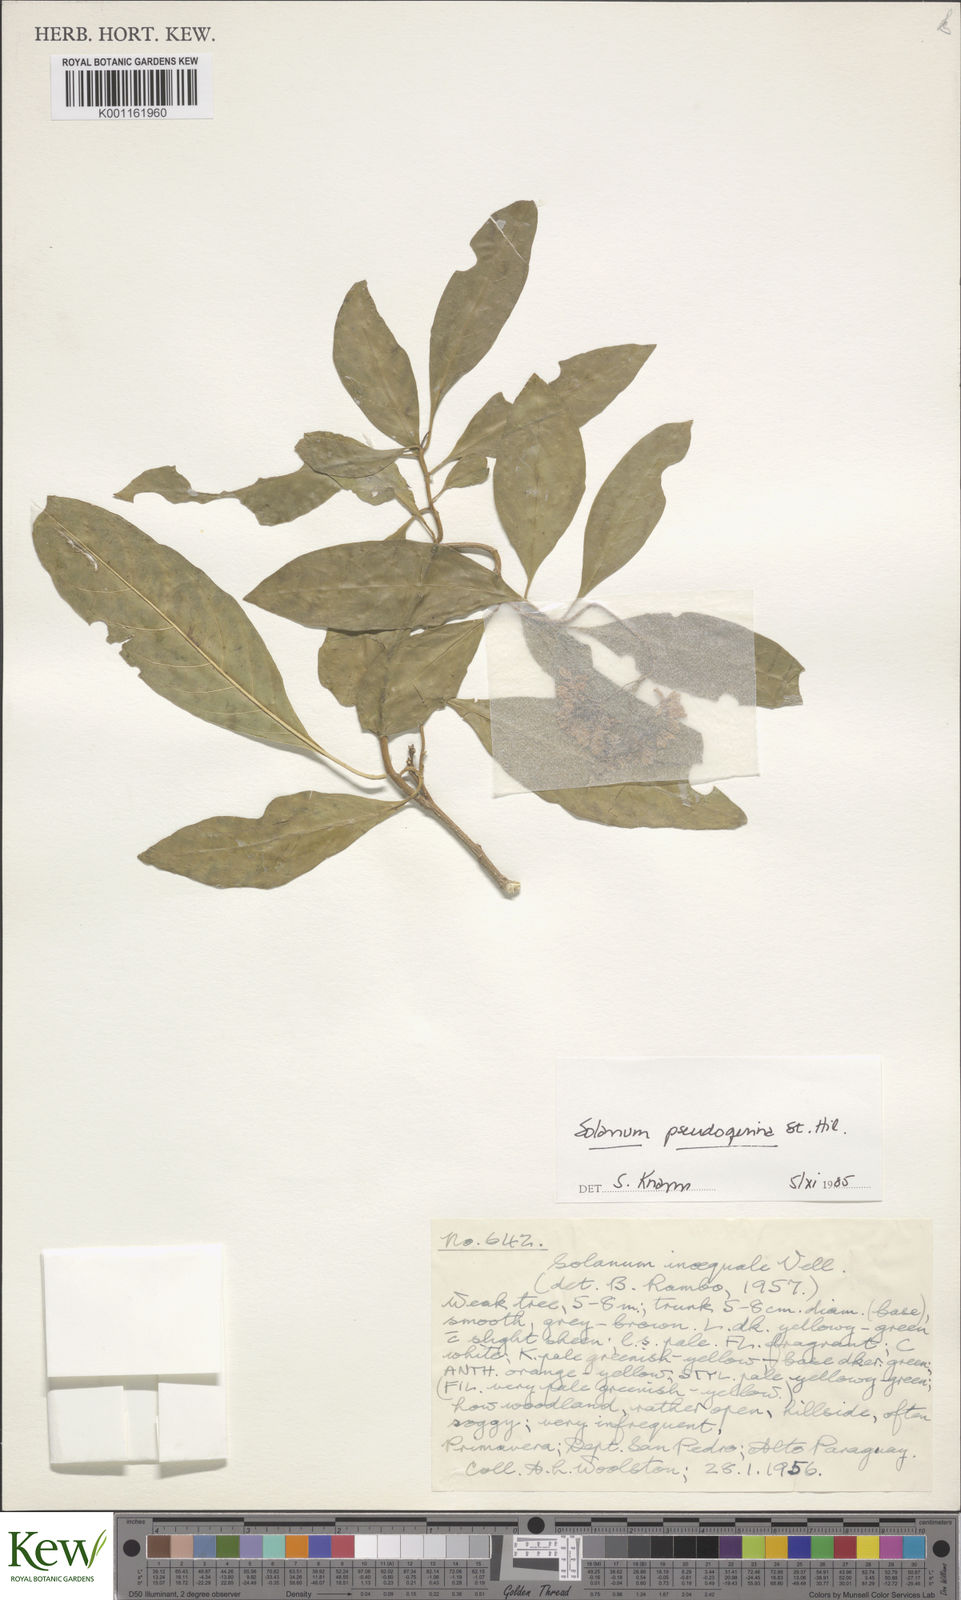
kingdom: Plantae
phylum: Tracheophyta
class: Magnoliopsida
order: Solanales
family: Solanaceae
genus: Solanum
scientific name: Solanum pseudoquina
